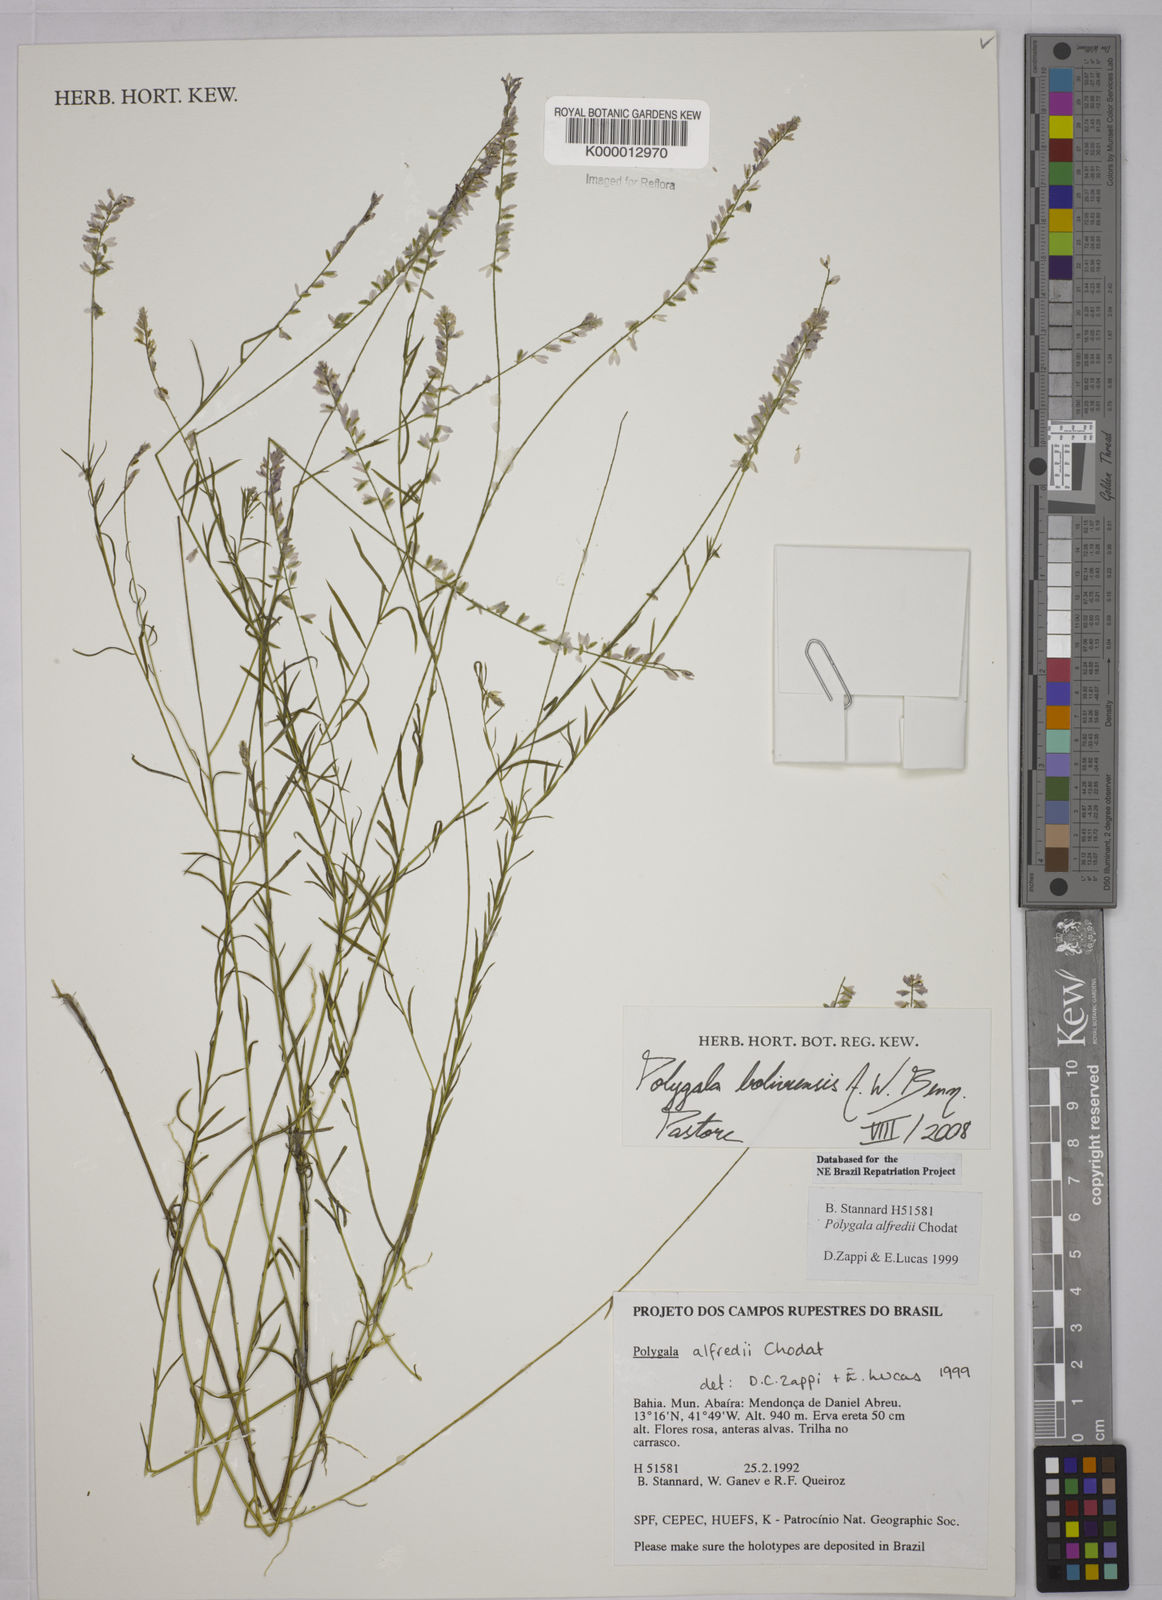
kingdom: Plantae
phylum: Tracheophyta
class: Magnoliopsida
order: Fabales
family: Polygalaceae
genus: Polygala
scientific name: Polygala boliviensis
